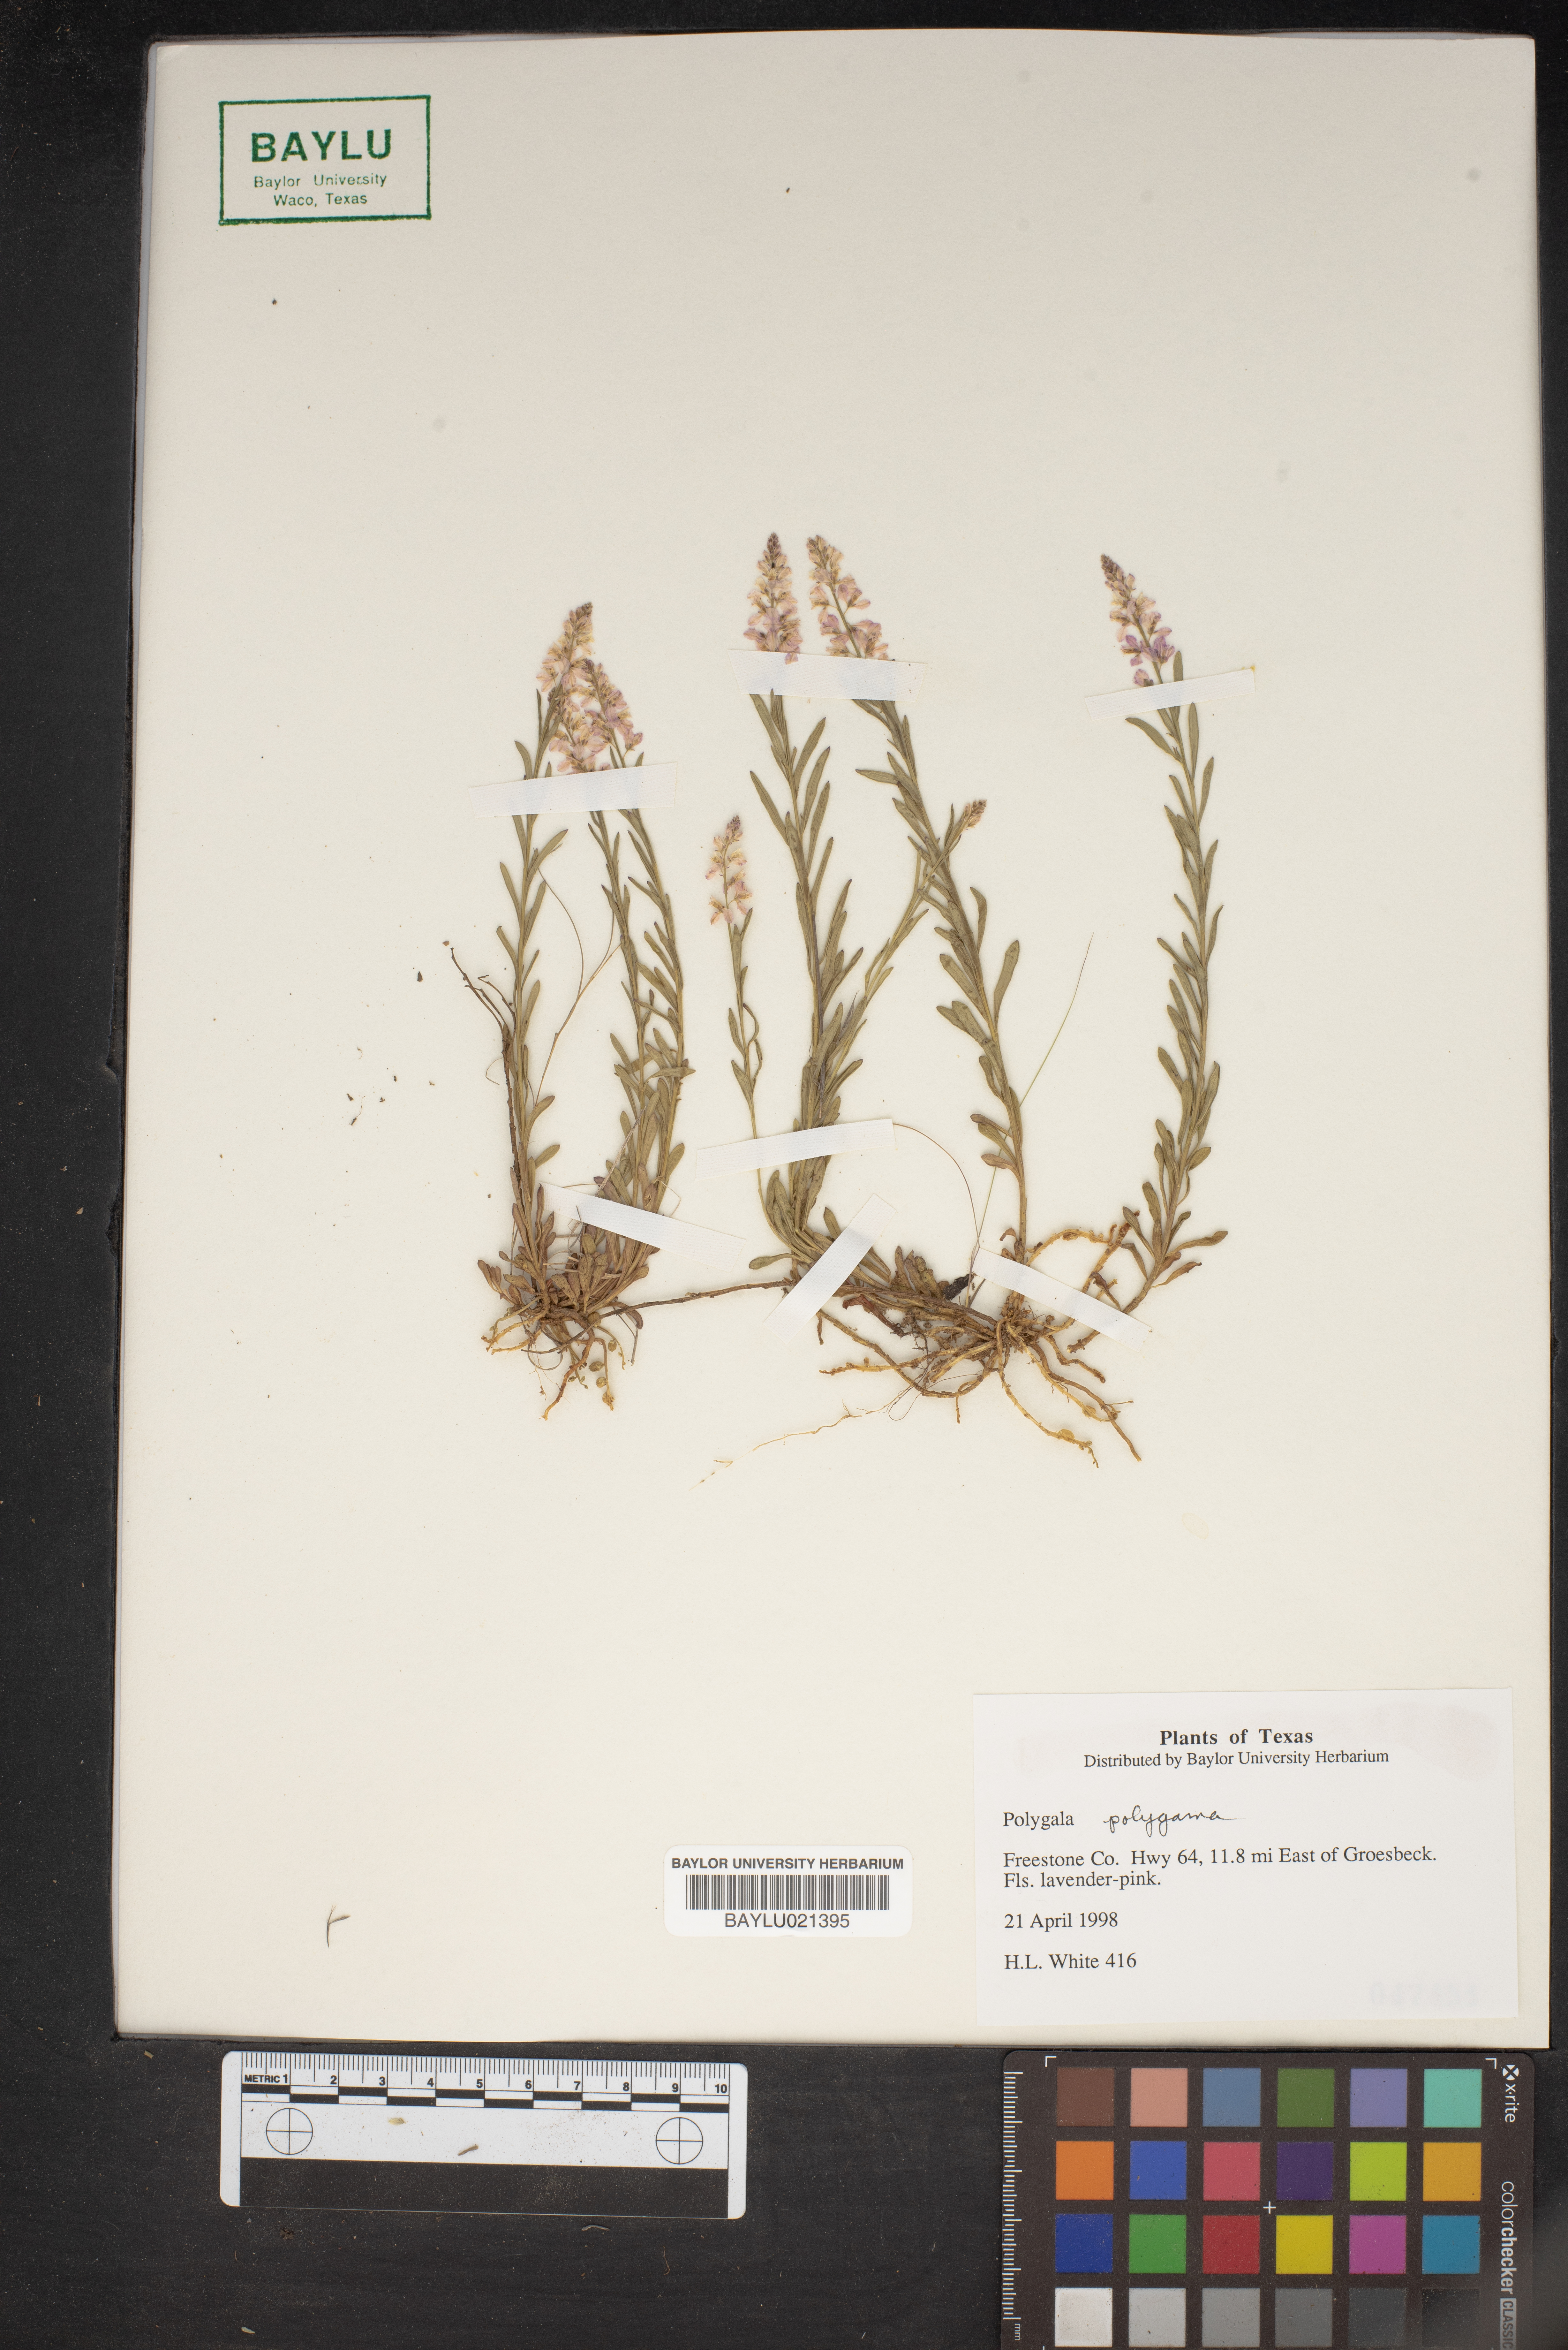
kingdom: Plantae
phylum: Tracheophyta
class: Magnoliopsida
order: Fabales
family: Polygalaceae
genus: Polygala
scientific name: Polygala polygama
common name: Bitter milkwort
